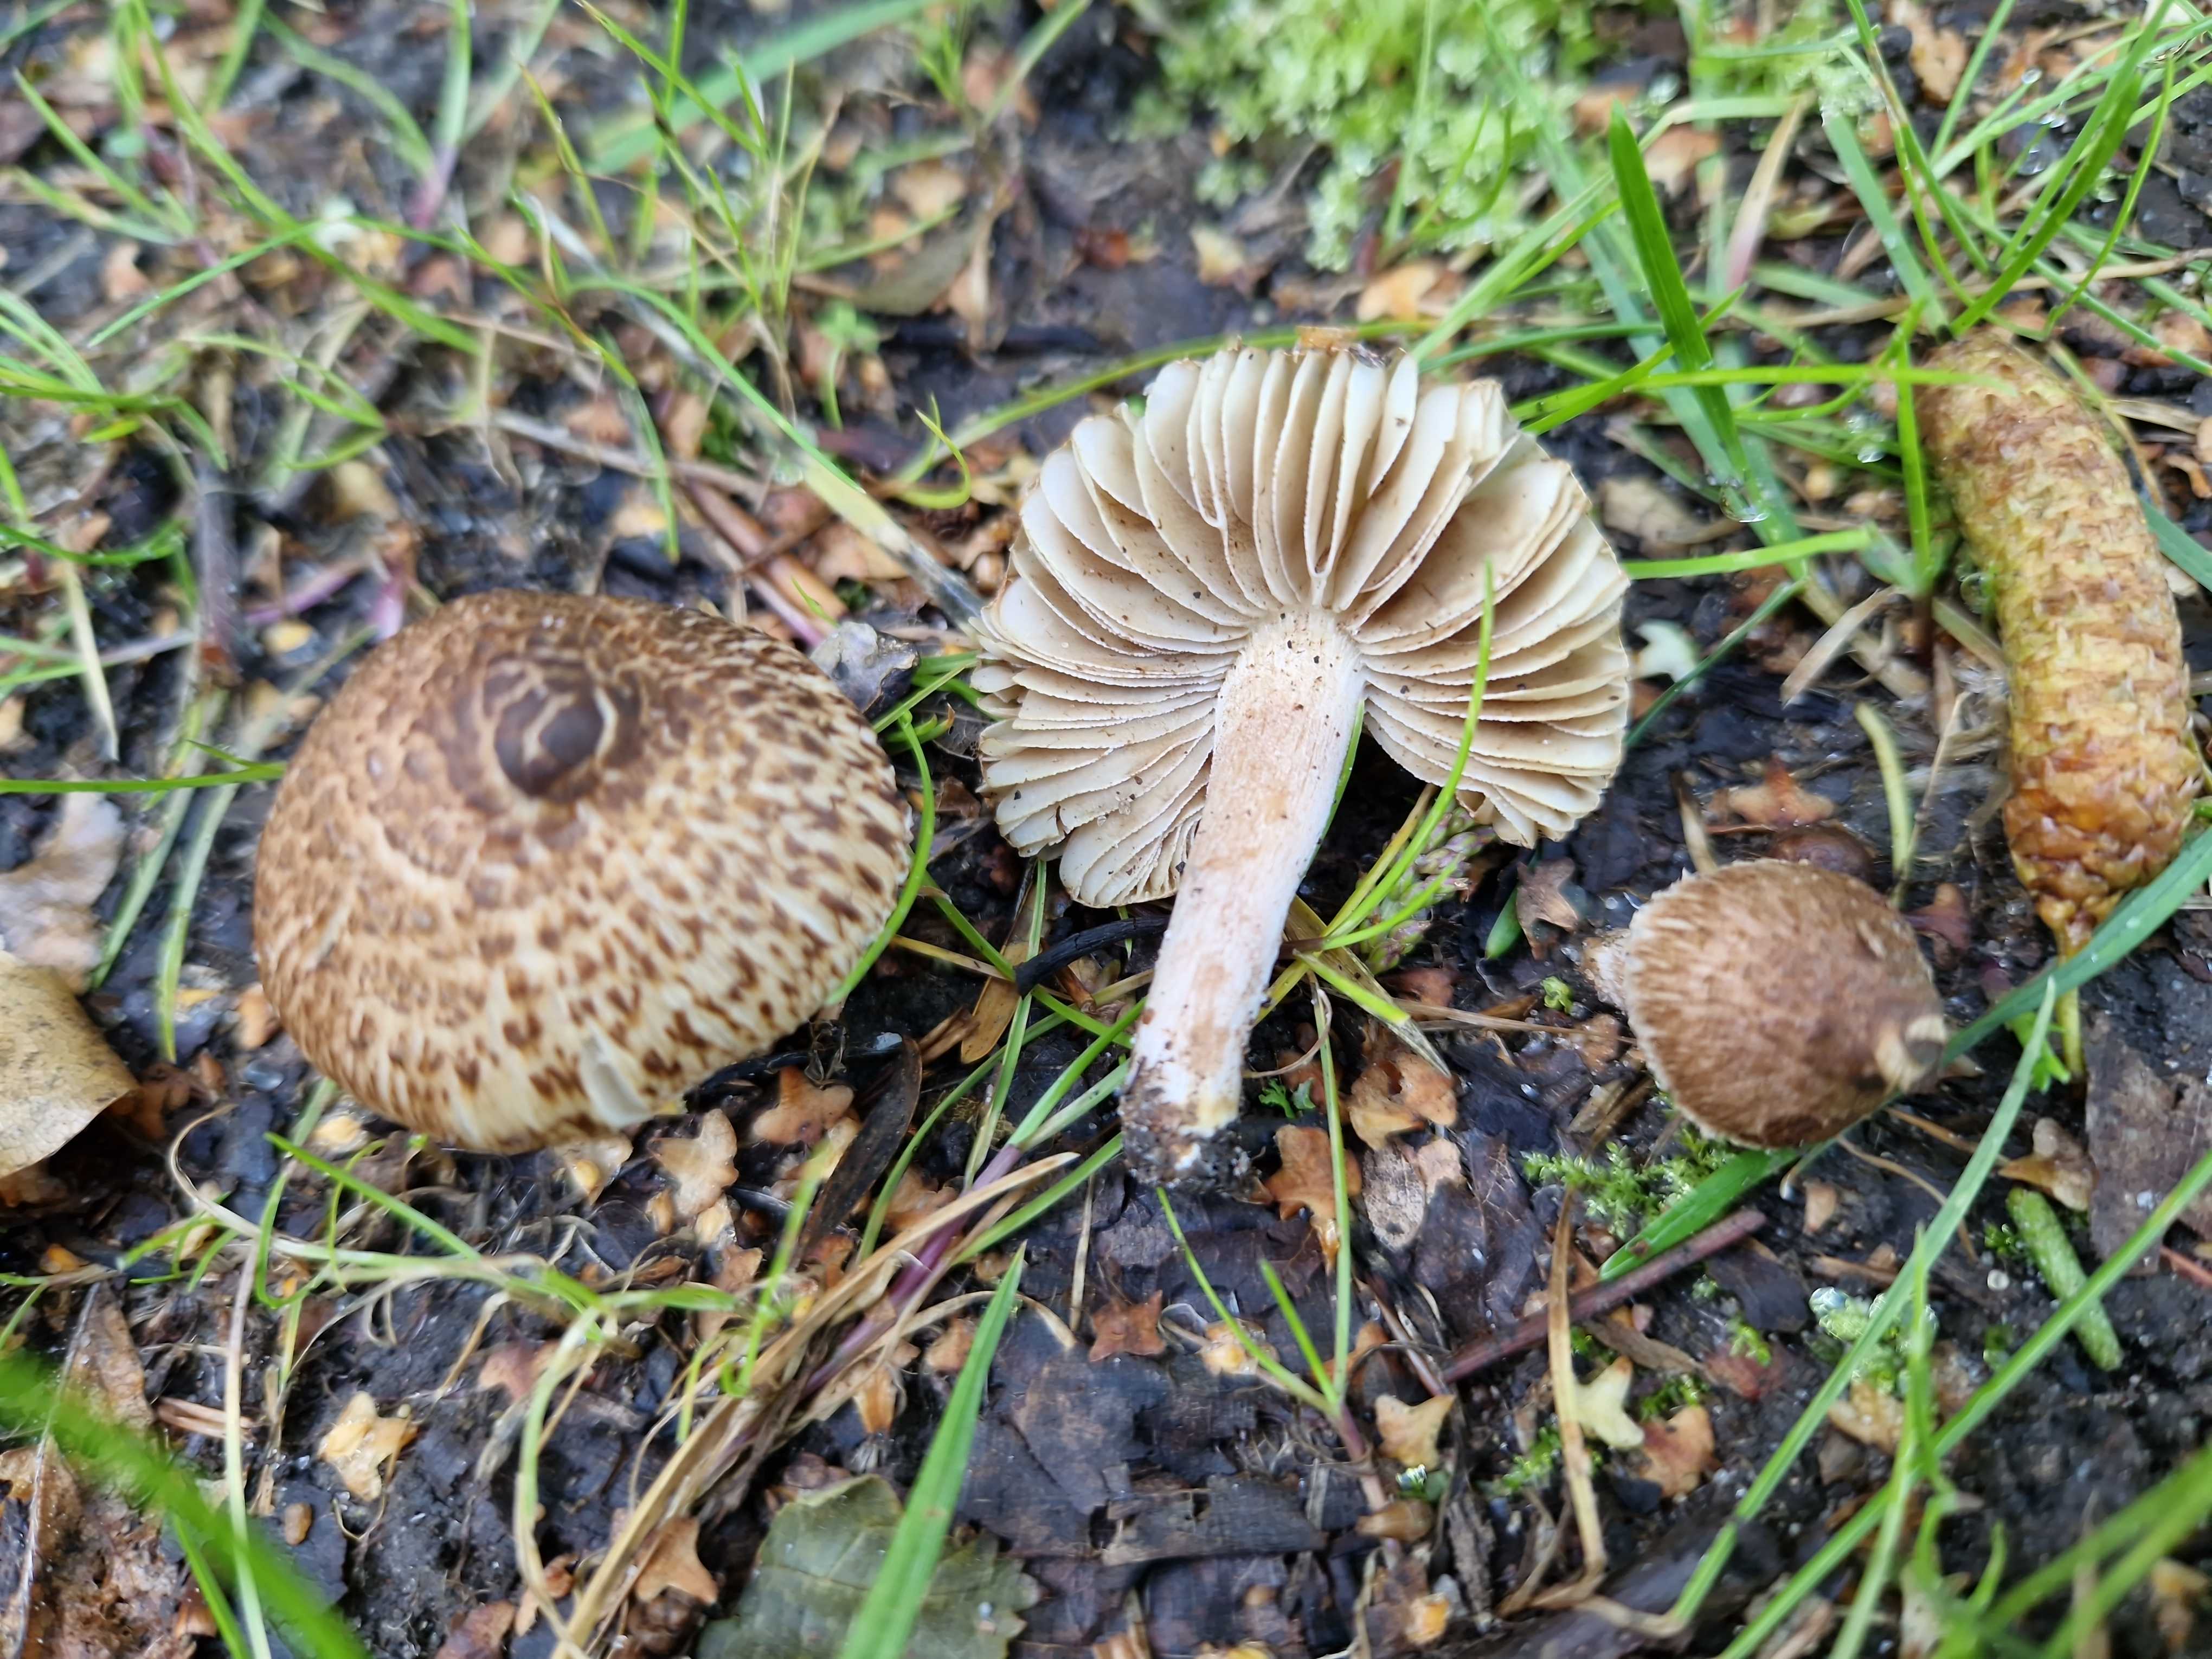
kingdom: Fungi
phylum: Basidiomycota
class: Agaricomycetes
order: Agaricales
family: Inocybaceae
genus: Inocybe
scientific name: Inocybe
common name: trævlhat
